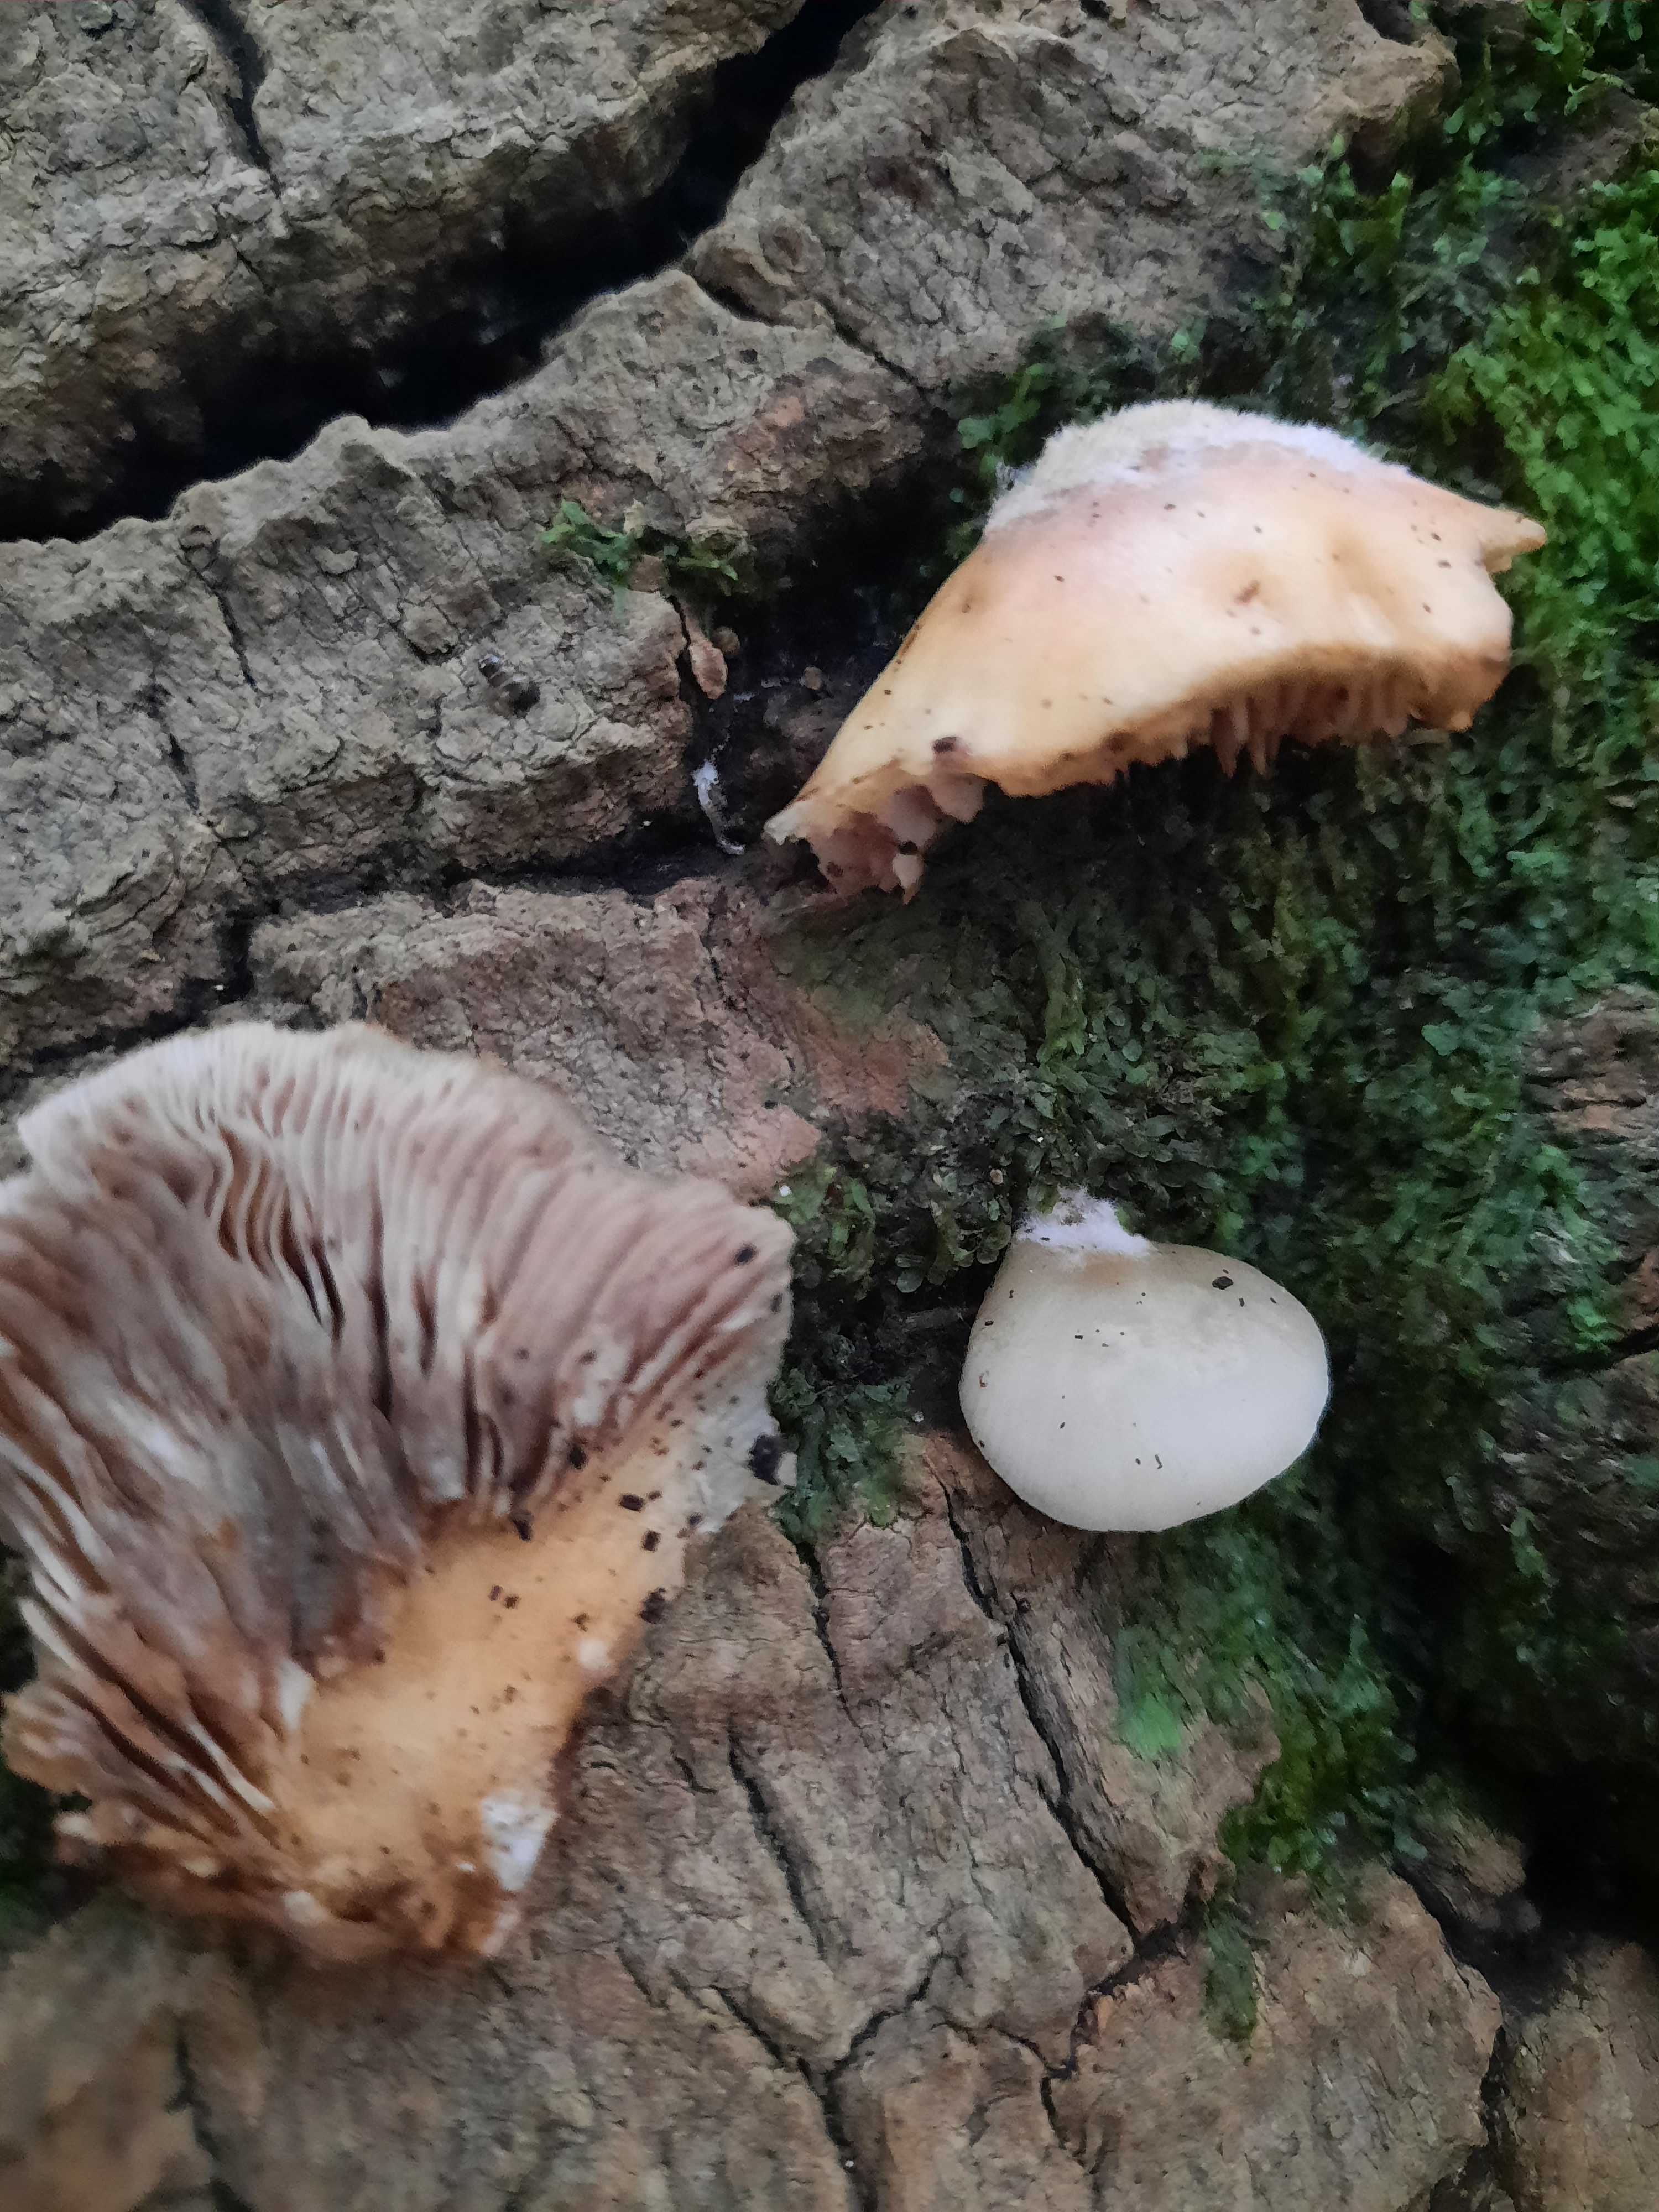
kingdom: Fungi
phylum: Basidiomycota
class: Agaricomycetes
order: Agaricales
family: Crepidotaceae
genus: Crepidotus
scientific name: Crepidotus mollis
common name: blød muslingesvamp
